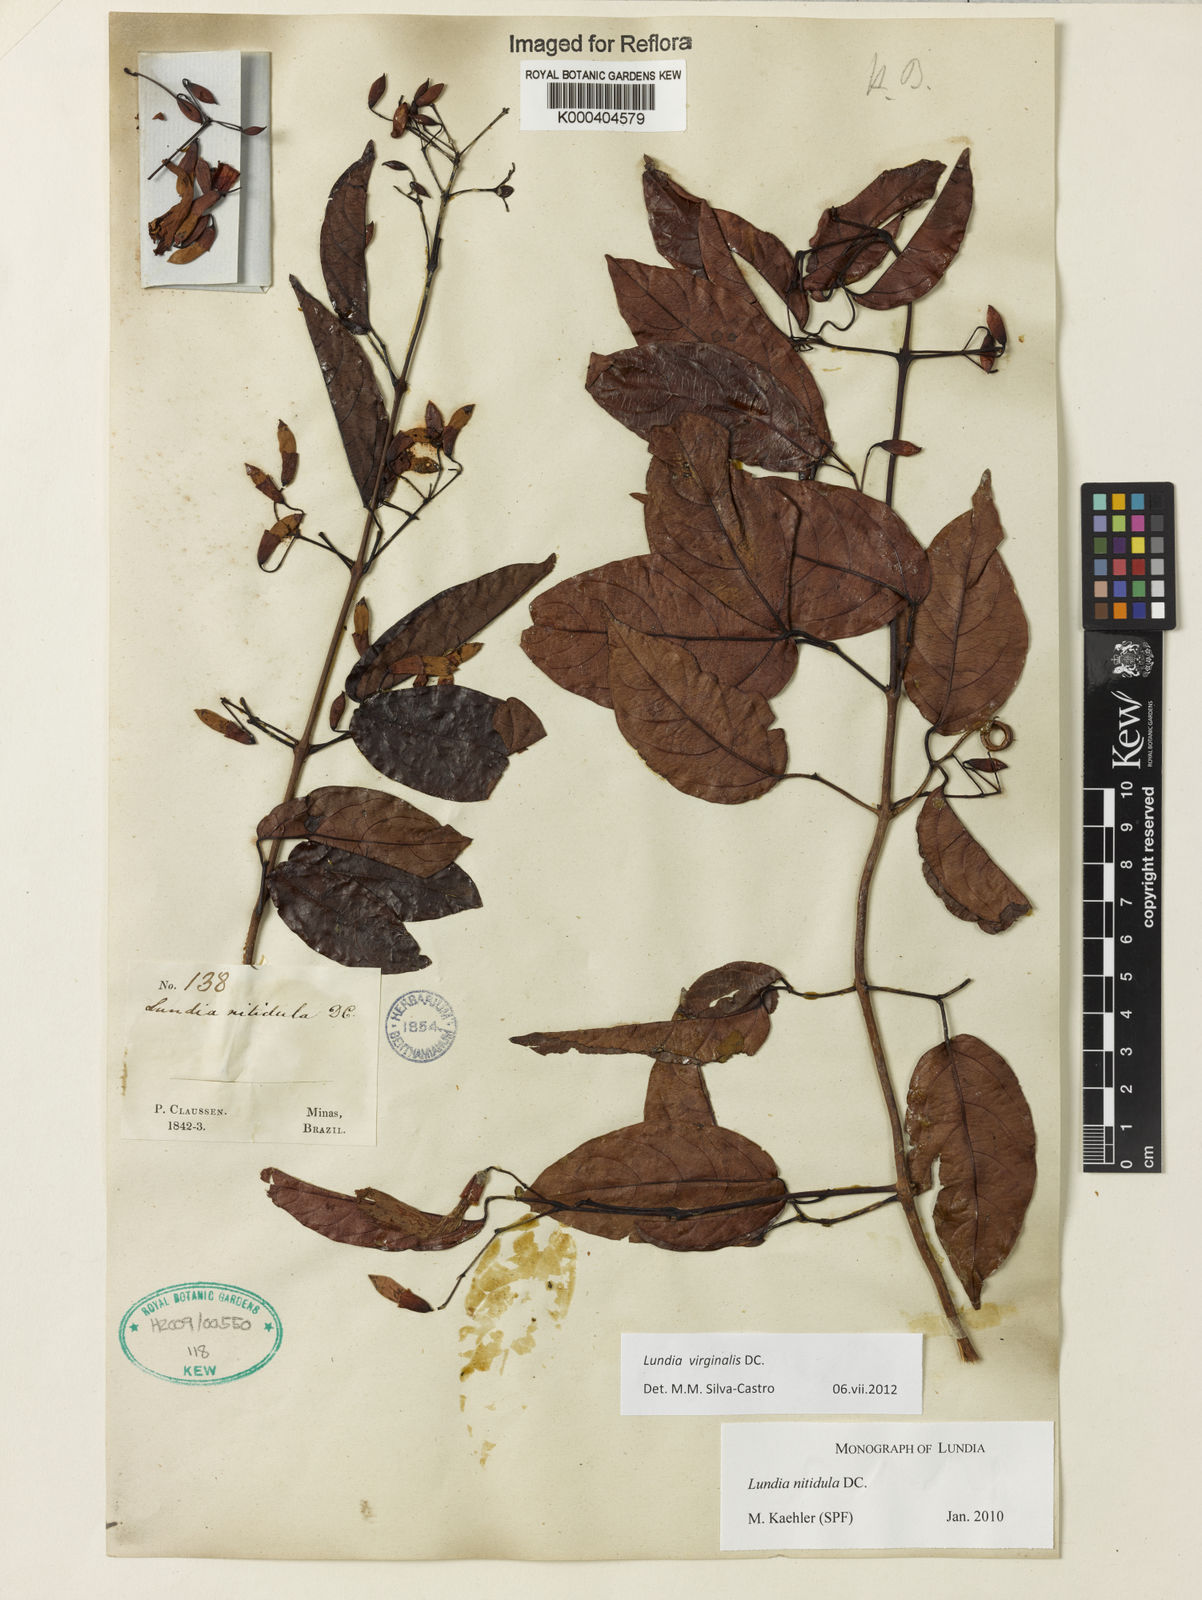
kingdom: Plantae
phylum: Tracheophyta
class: Magnoliopsida
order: Lamiales
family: Bignoniaceae
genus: Lundia
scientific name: Lundia virginalis
